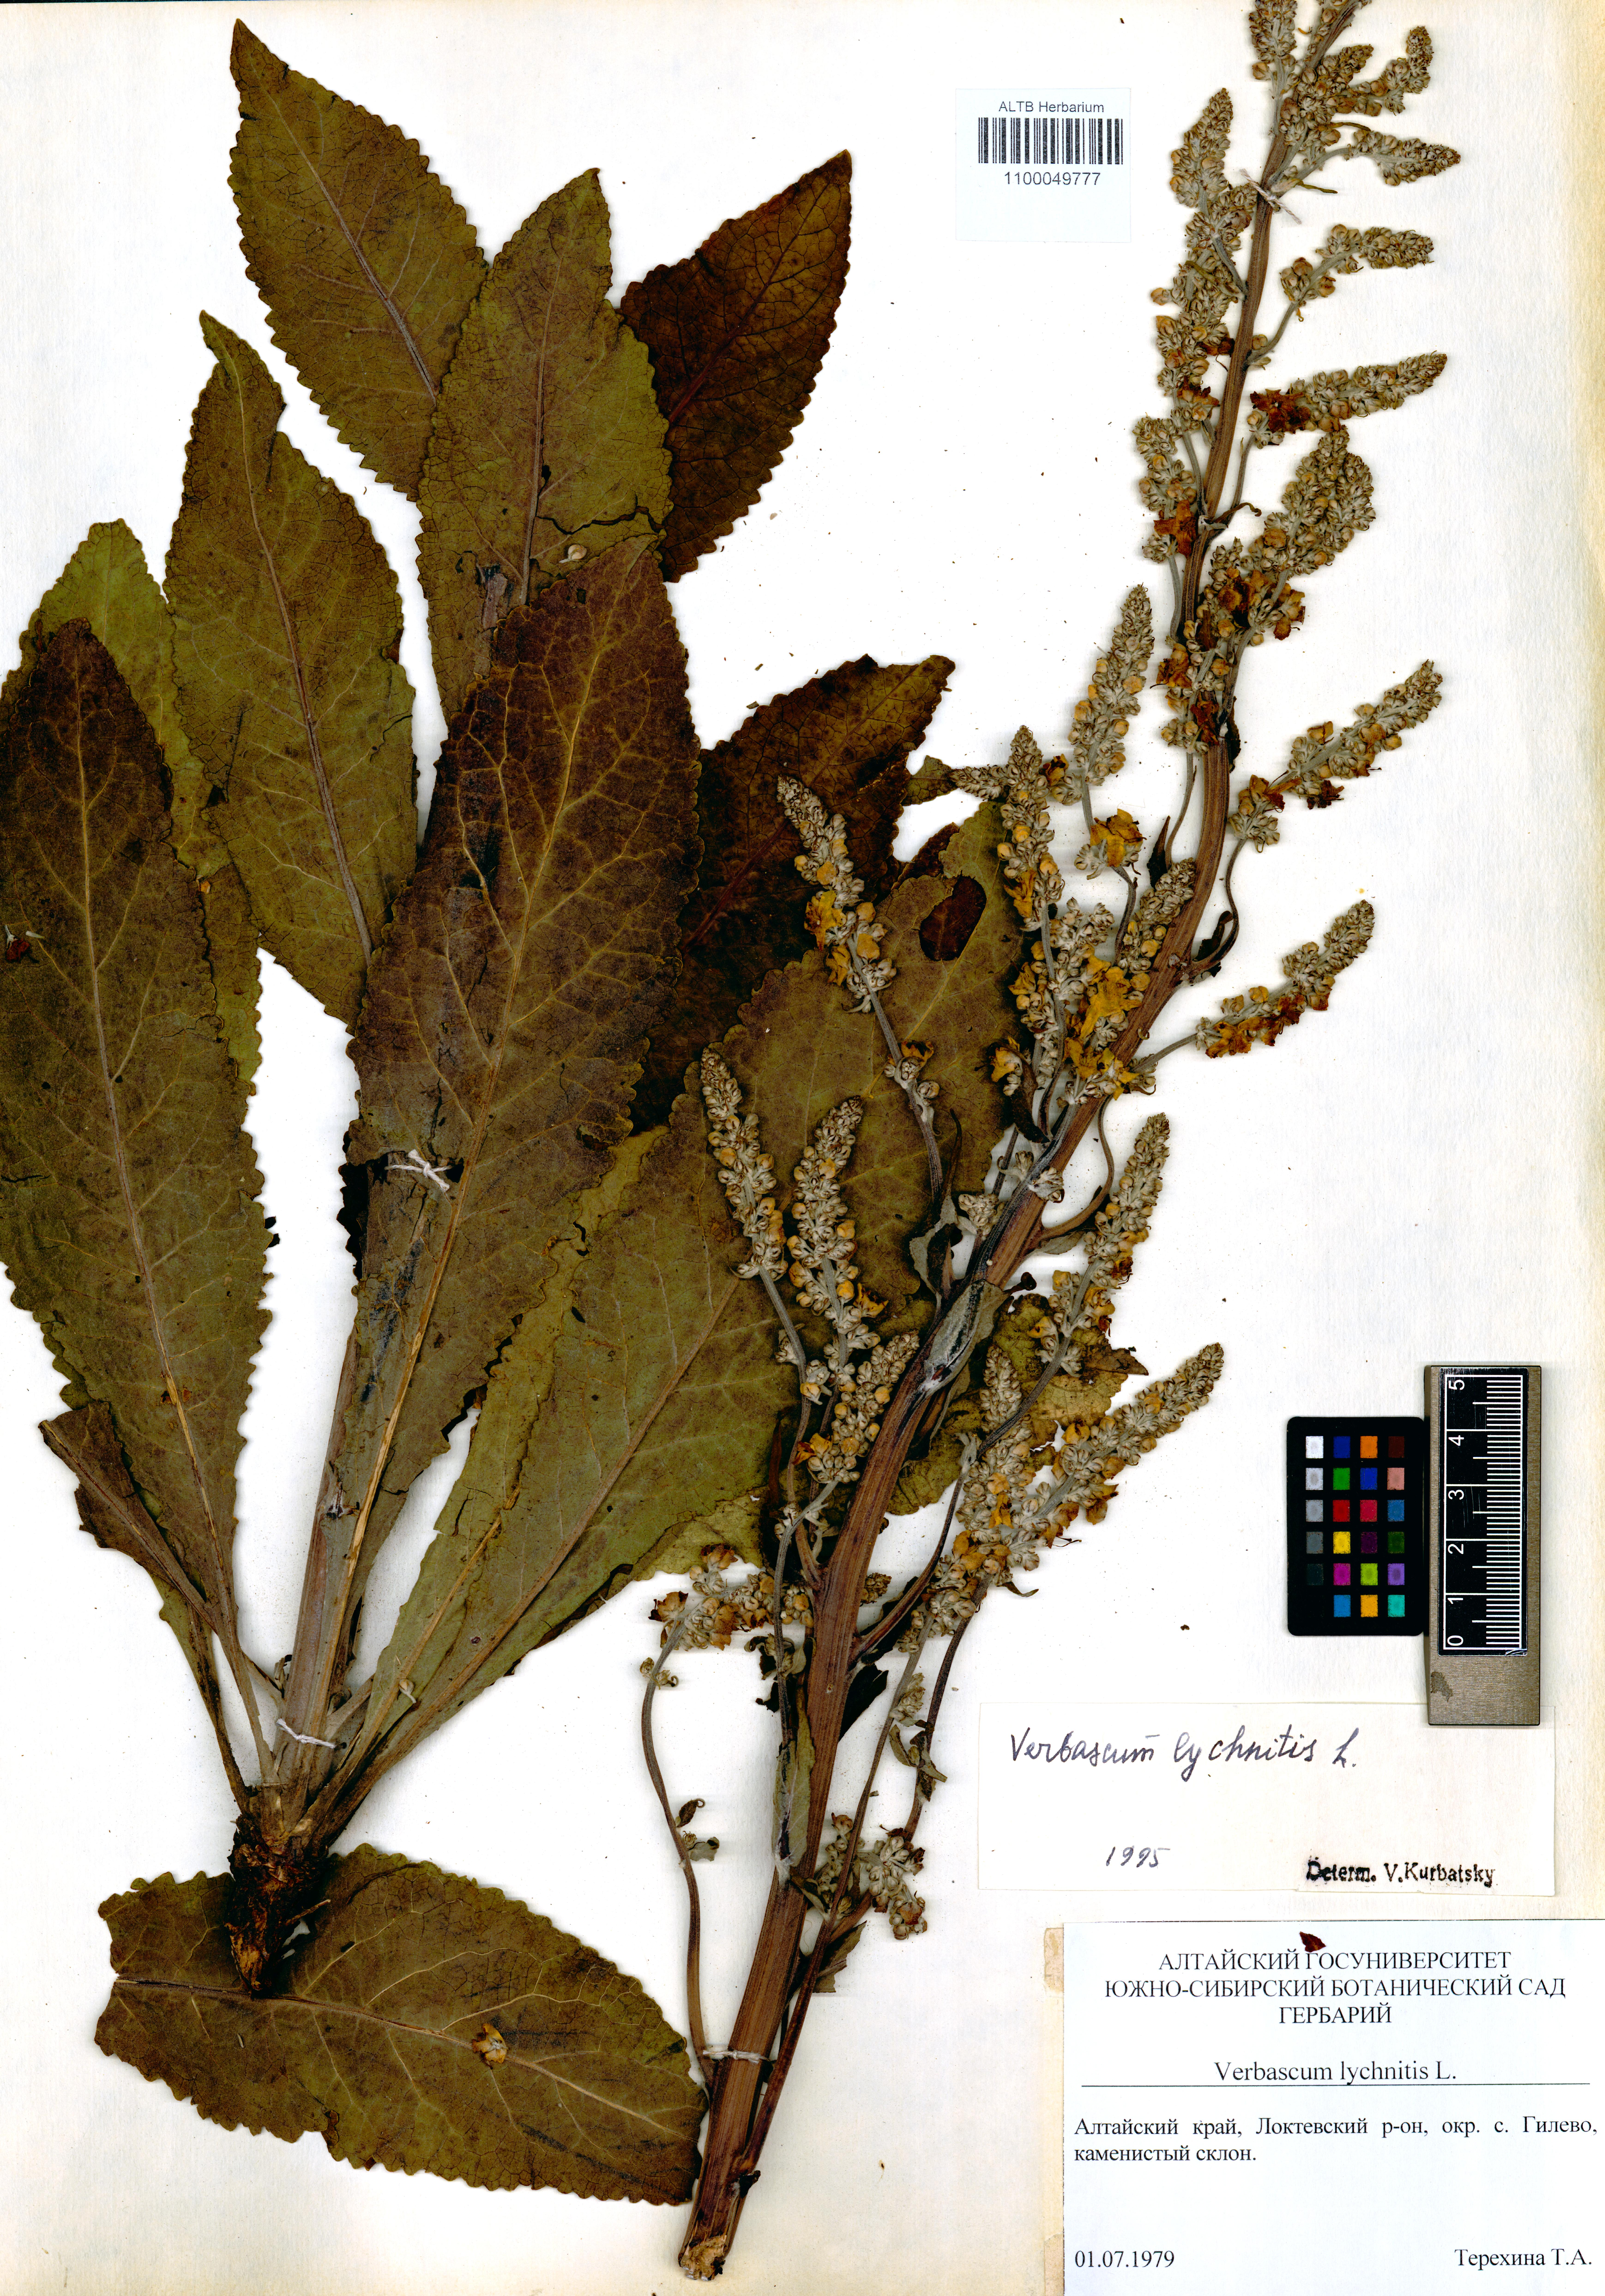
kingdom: Plantae
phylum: Tracheophyta
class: Magnoliopsida
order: Lamiales
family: Scrophulariaceae
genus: Verbascum
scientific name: Verbascum lychnitis
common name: White mullein
